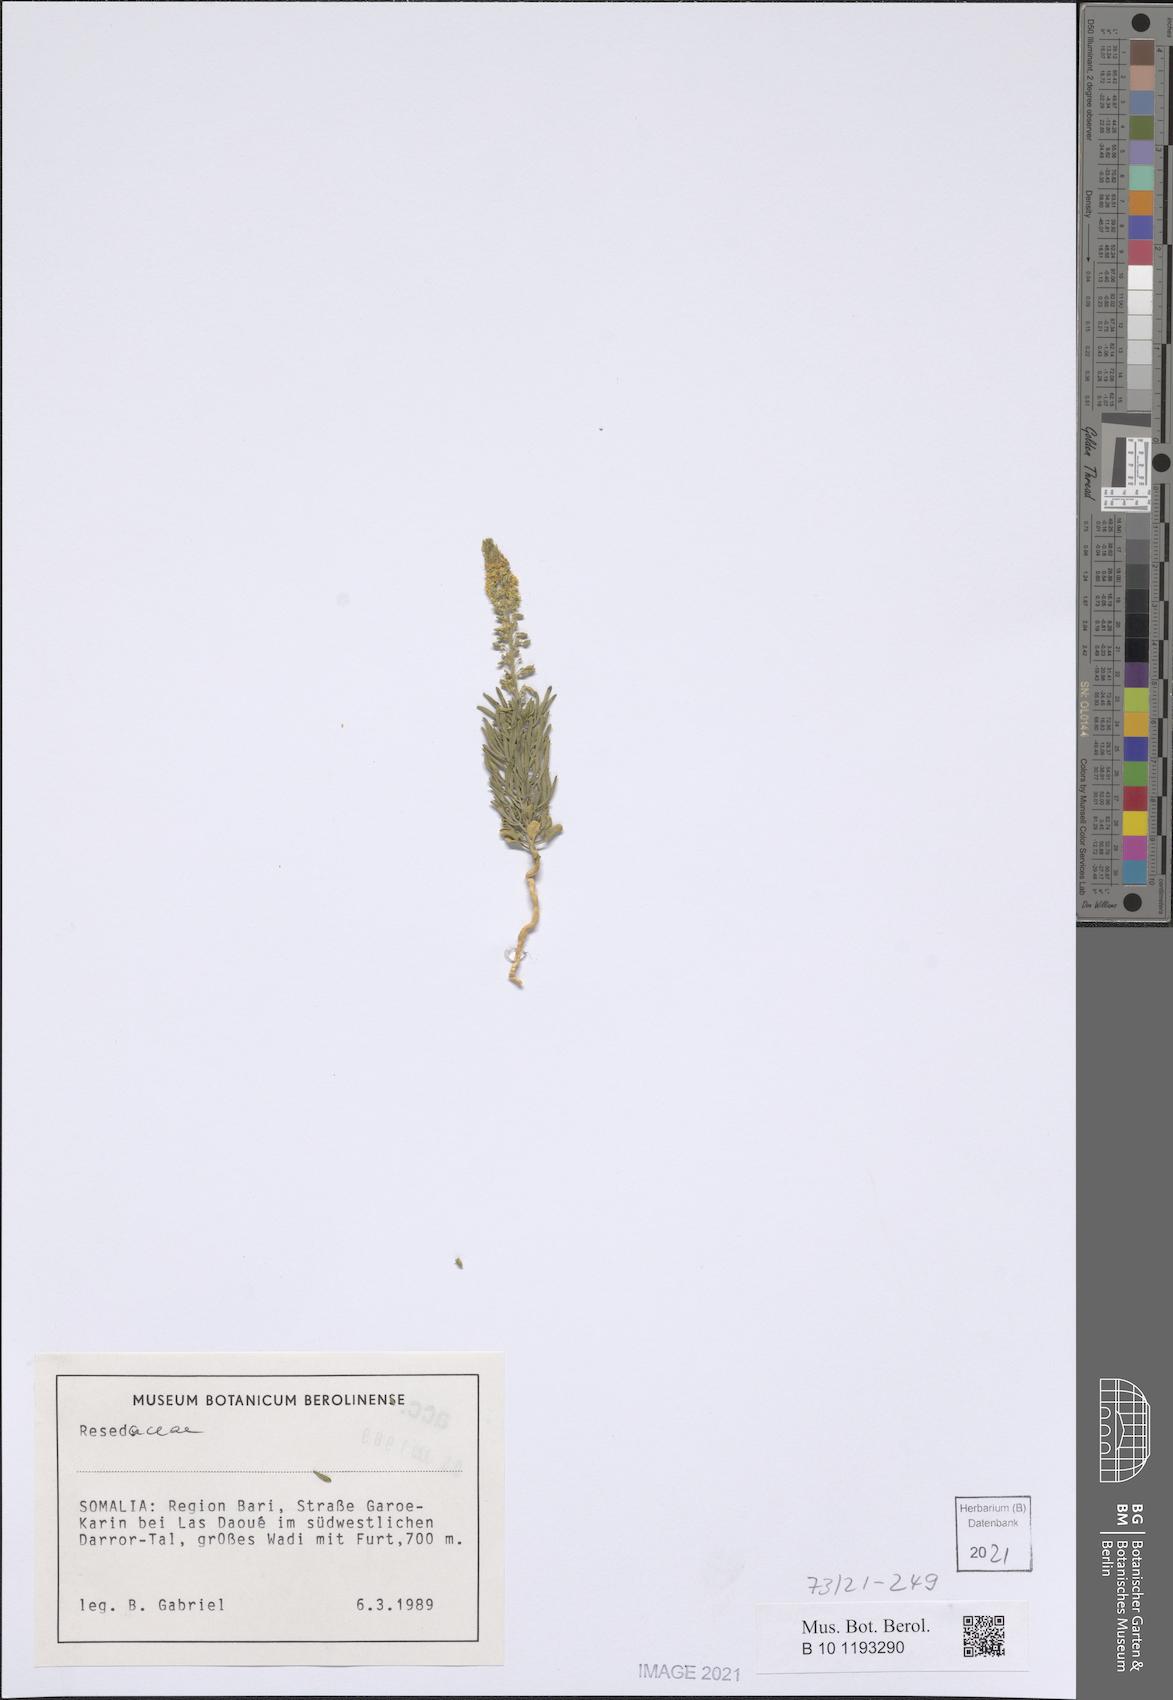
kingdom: Plantae
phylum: Tracheophyta
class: Magnoliopsida
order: Brassicales
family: Resedaceae
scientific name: Resedaceae
